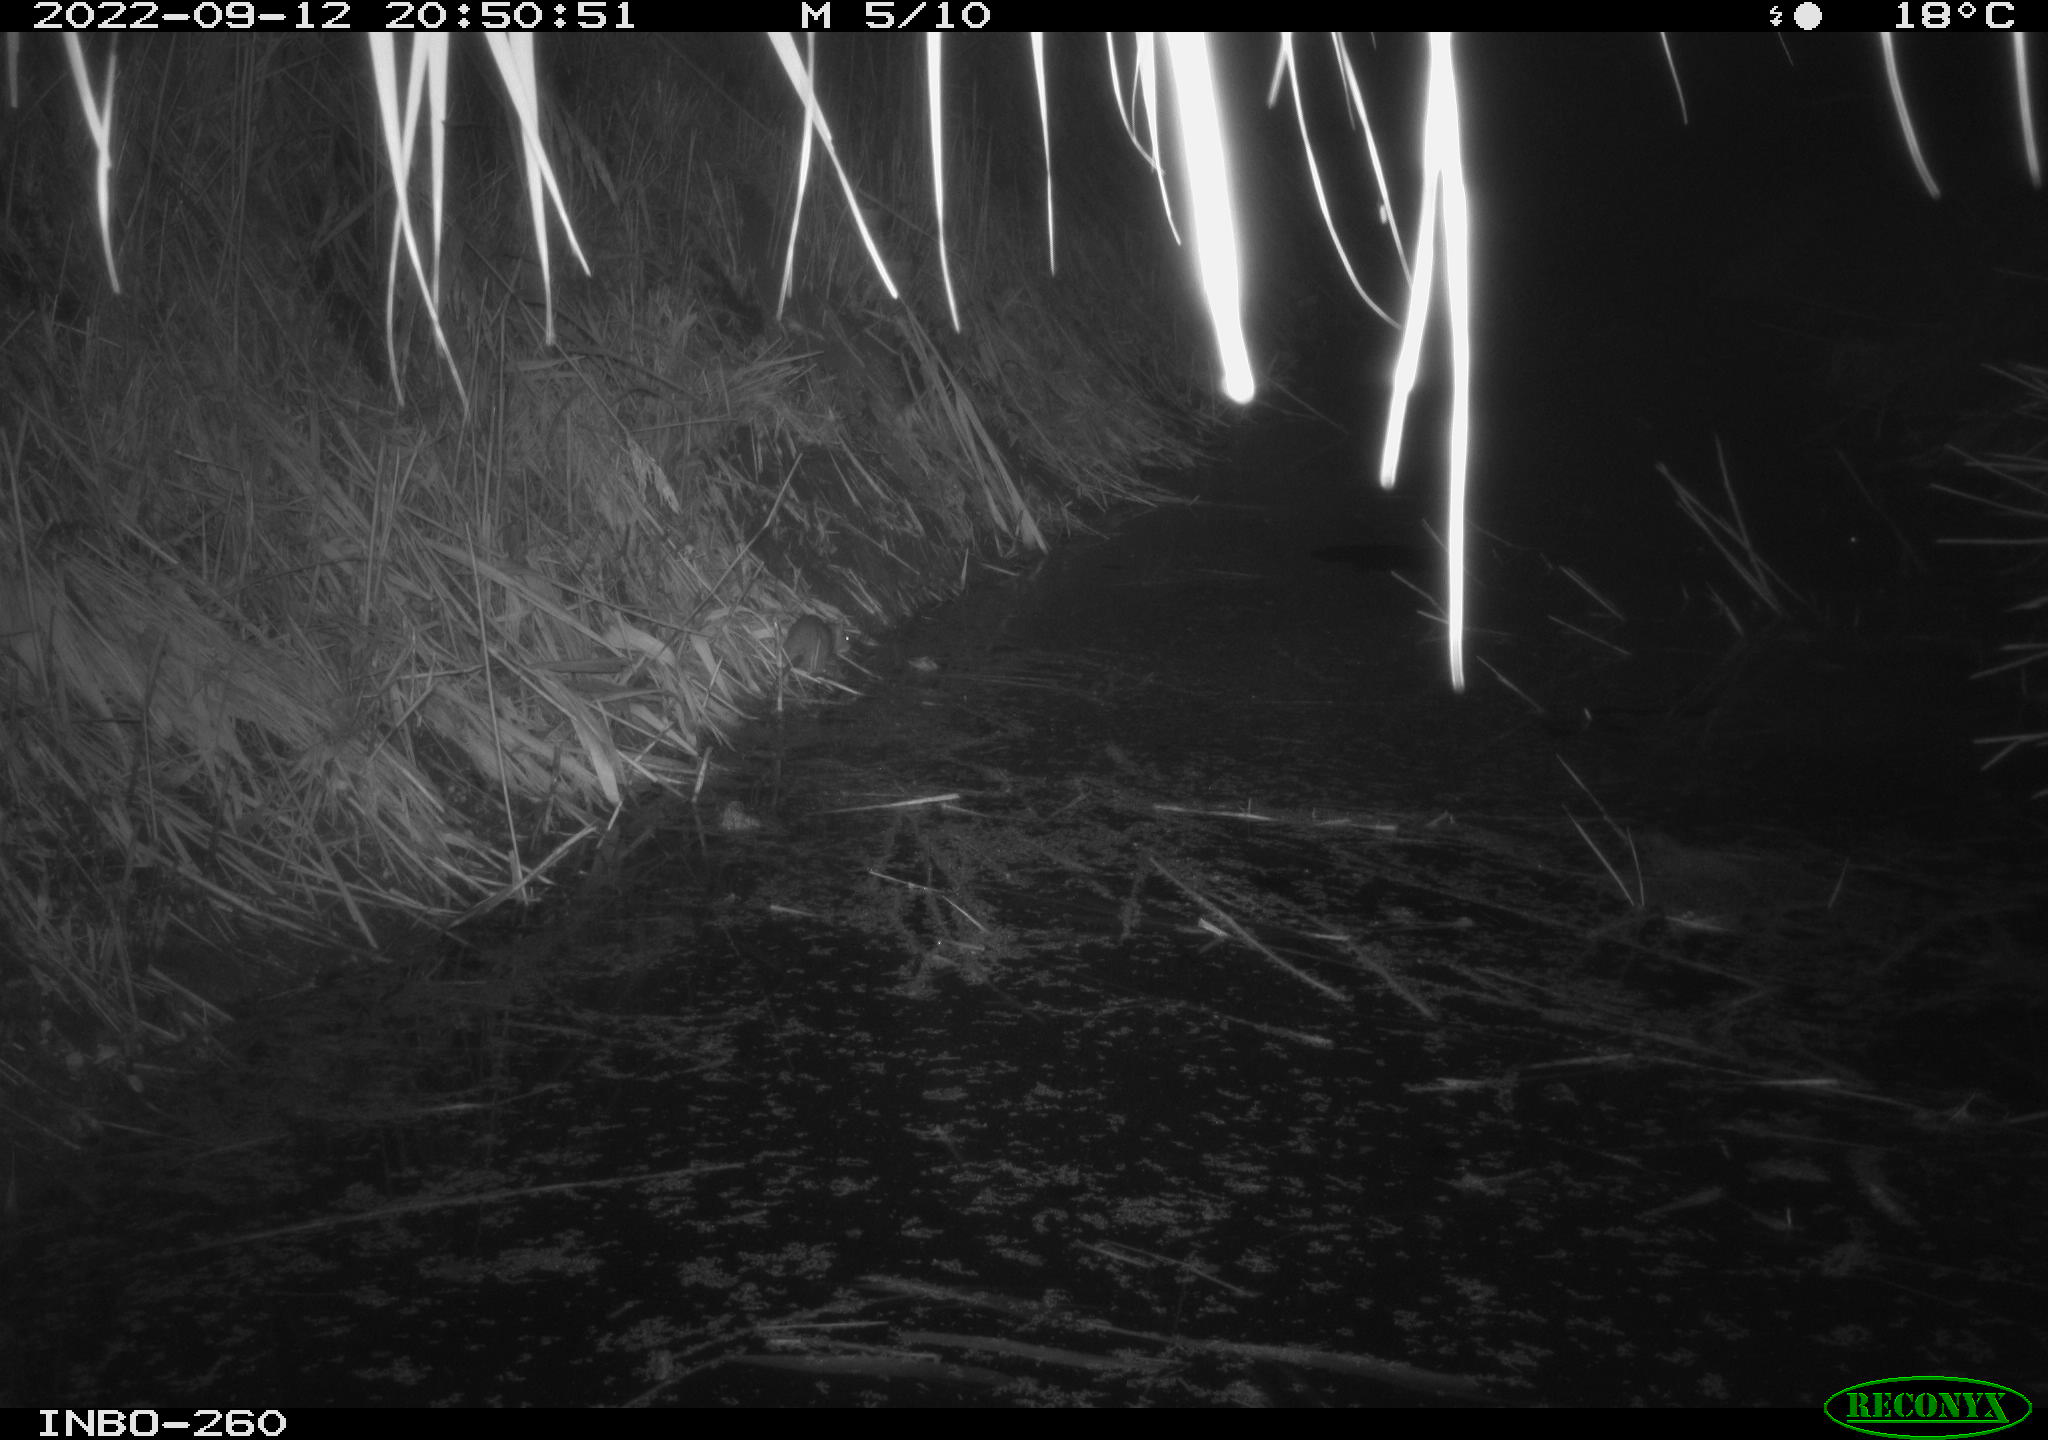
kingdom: Animalia
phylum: Chordata
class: Mammalia
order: Rodentia
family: Muridae
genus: Rattus
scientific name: Rattus norvegicus
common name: Brown rat
